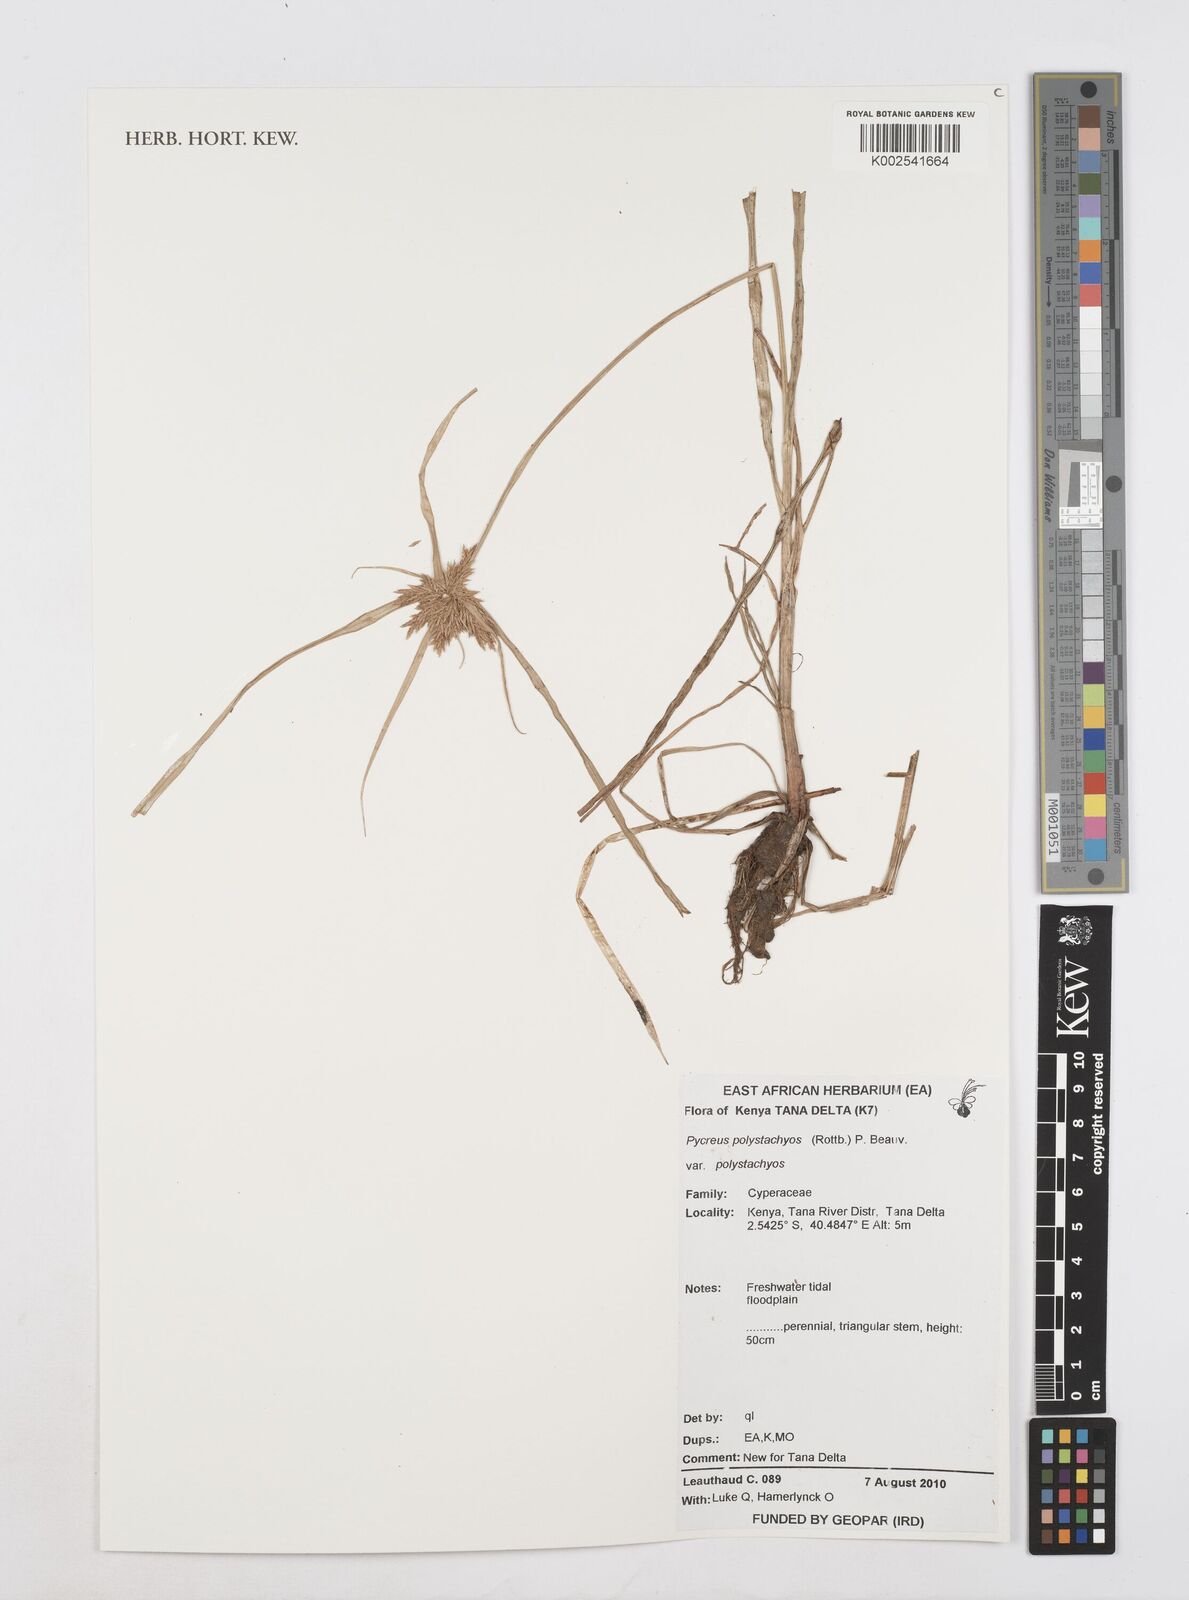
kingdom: Plantae
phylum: Tracheophyta
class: Liliopsida
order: Poales
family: Cyperaceae
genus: Cyperus
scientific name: Cyperus polystachyos
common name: Bunchy flat sedge
